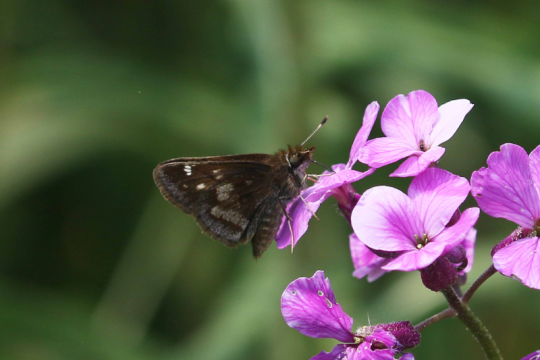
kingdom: Animalia
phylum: Arthropoda
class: Insecta
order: Lepidoptera
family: Hesperiidae
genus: Lon
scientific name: Lon hobomok
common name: Hobomok Skipper
